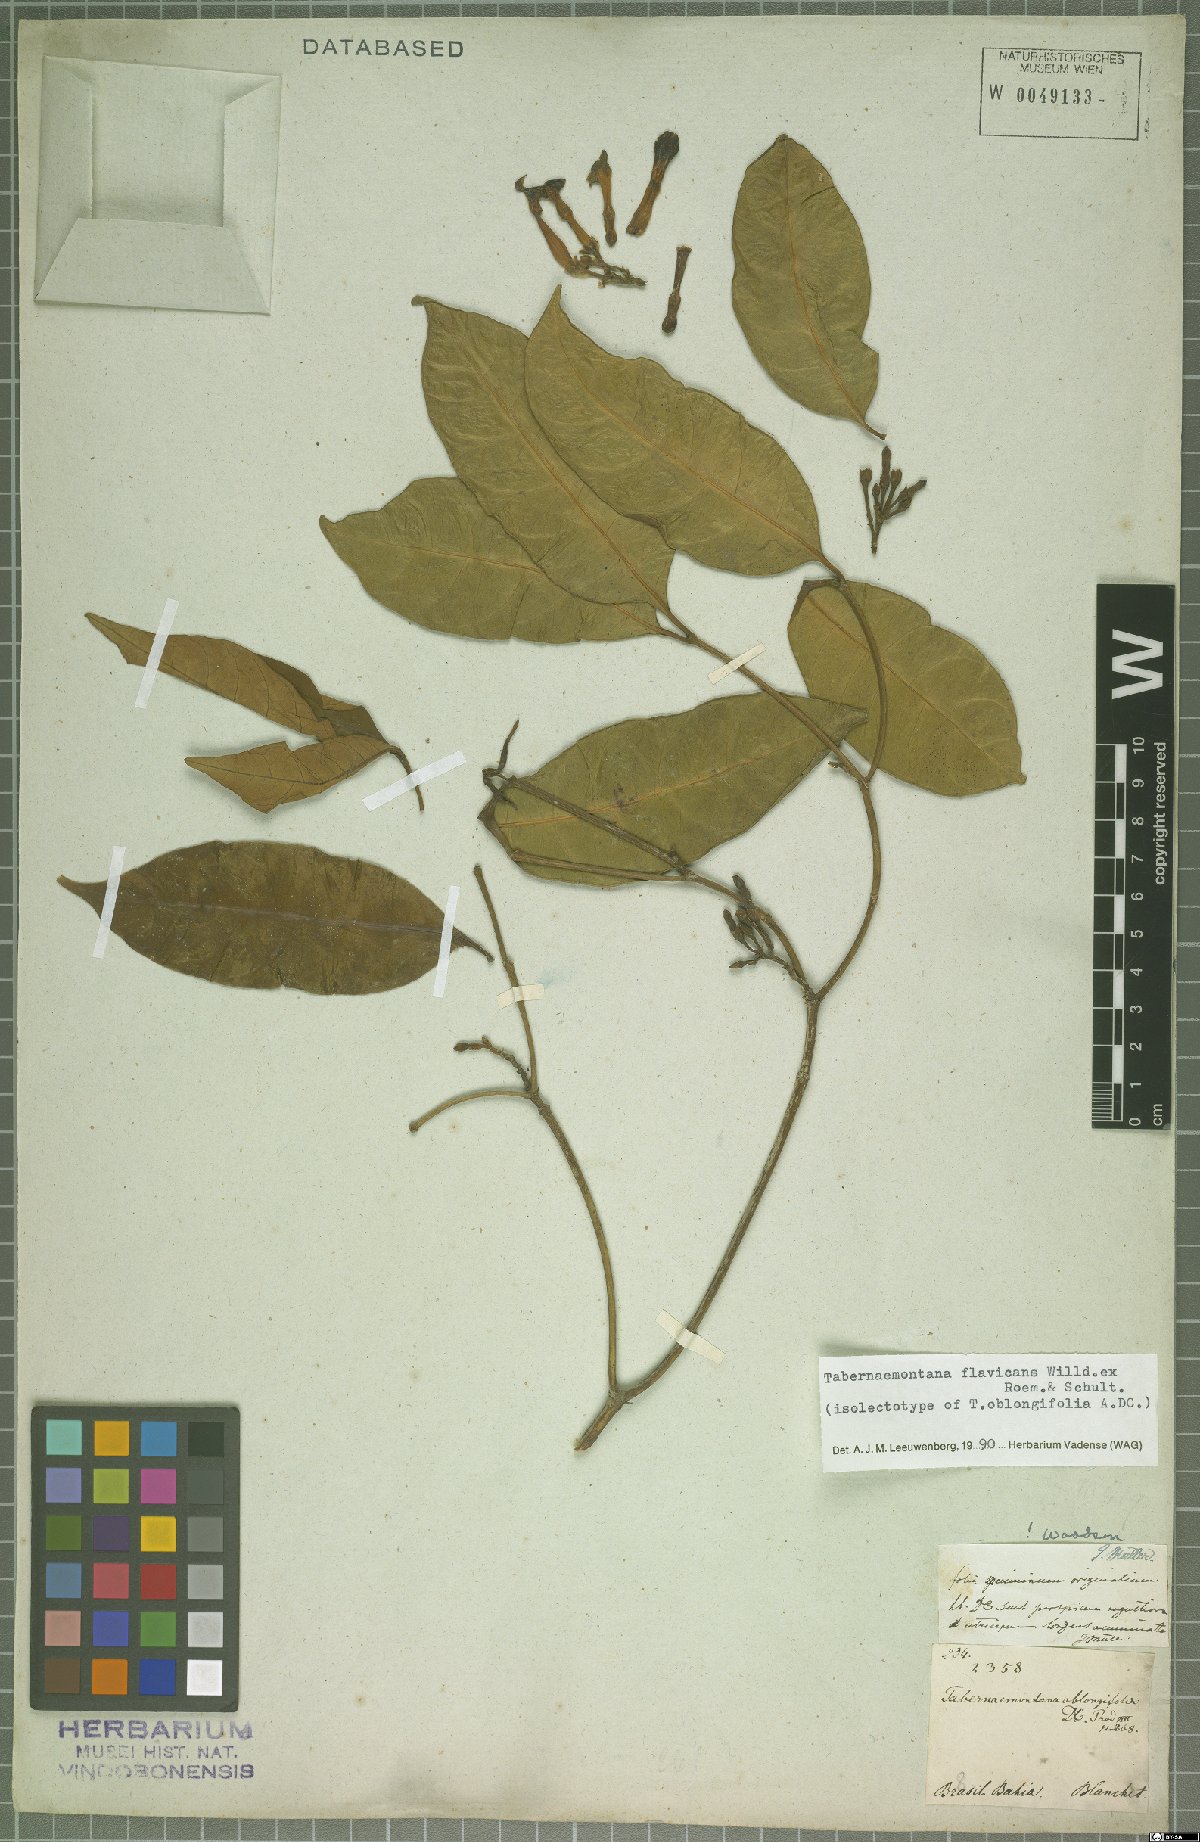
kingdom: Plantae
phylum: Tracheophyta
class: Magnoliopsida
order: Gentianales
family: Apocynaceae
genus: Tabernaemontana
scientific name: Tabernaemontana flavicans
